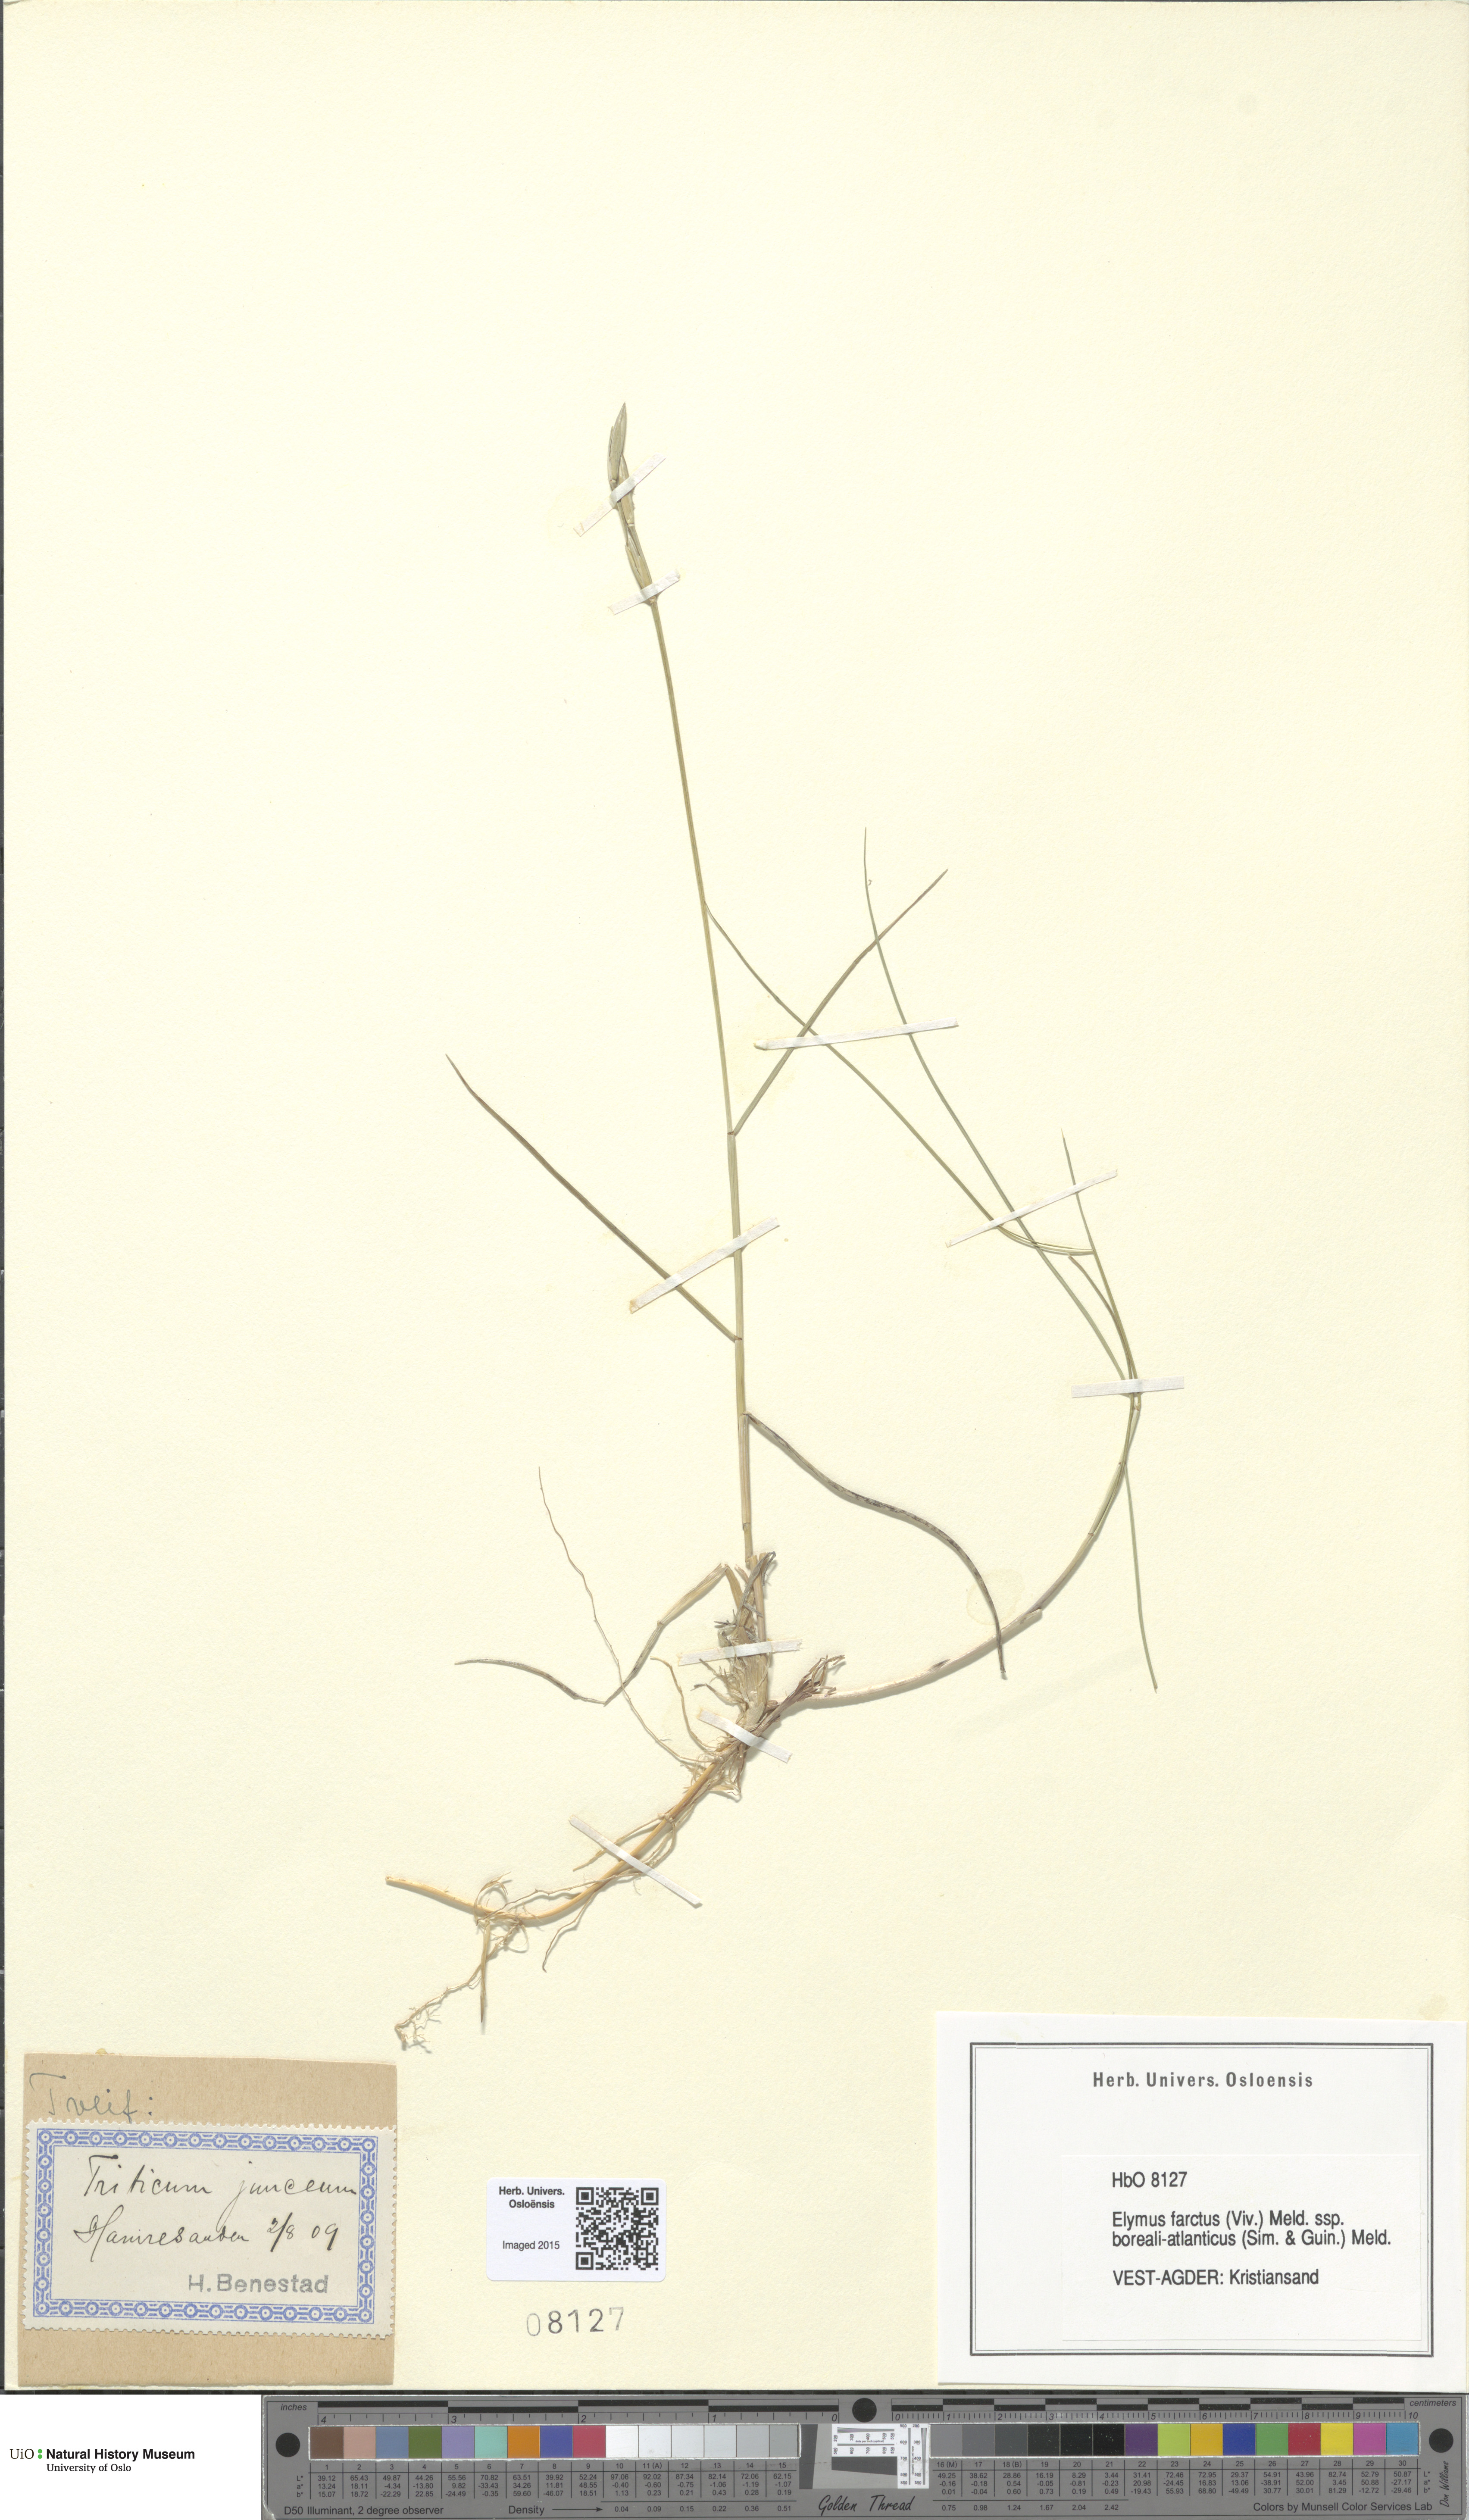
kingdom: Plantae
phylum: Tracheophyta
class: Liliopsida
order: Poales
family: Poaceae
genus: Thinopyrum
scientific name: Thinopyrum junceiforme
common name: Sea couch
